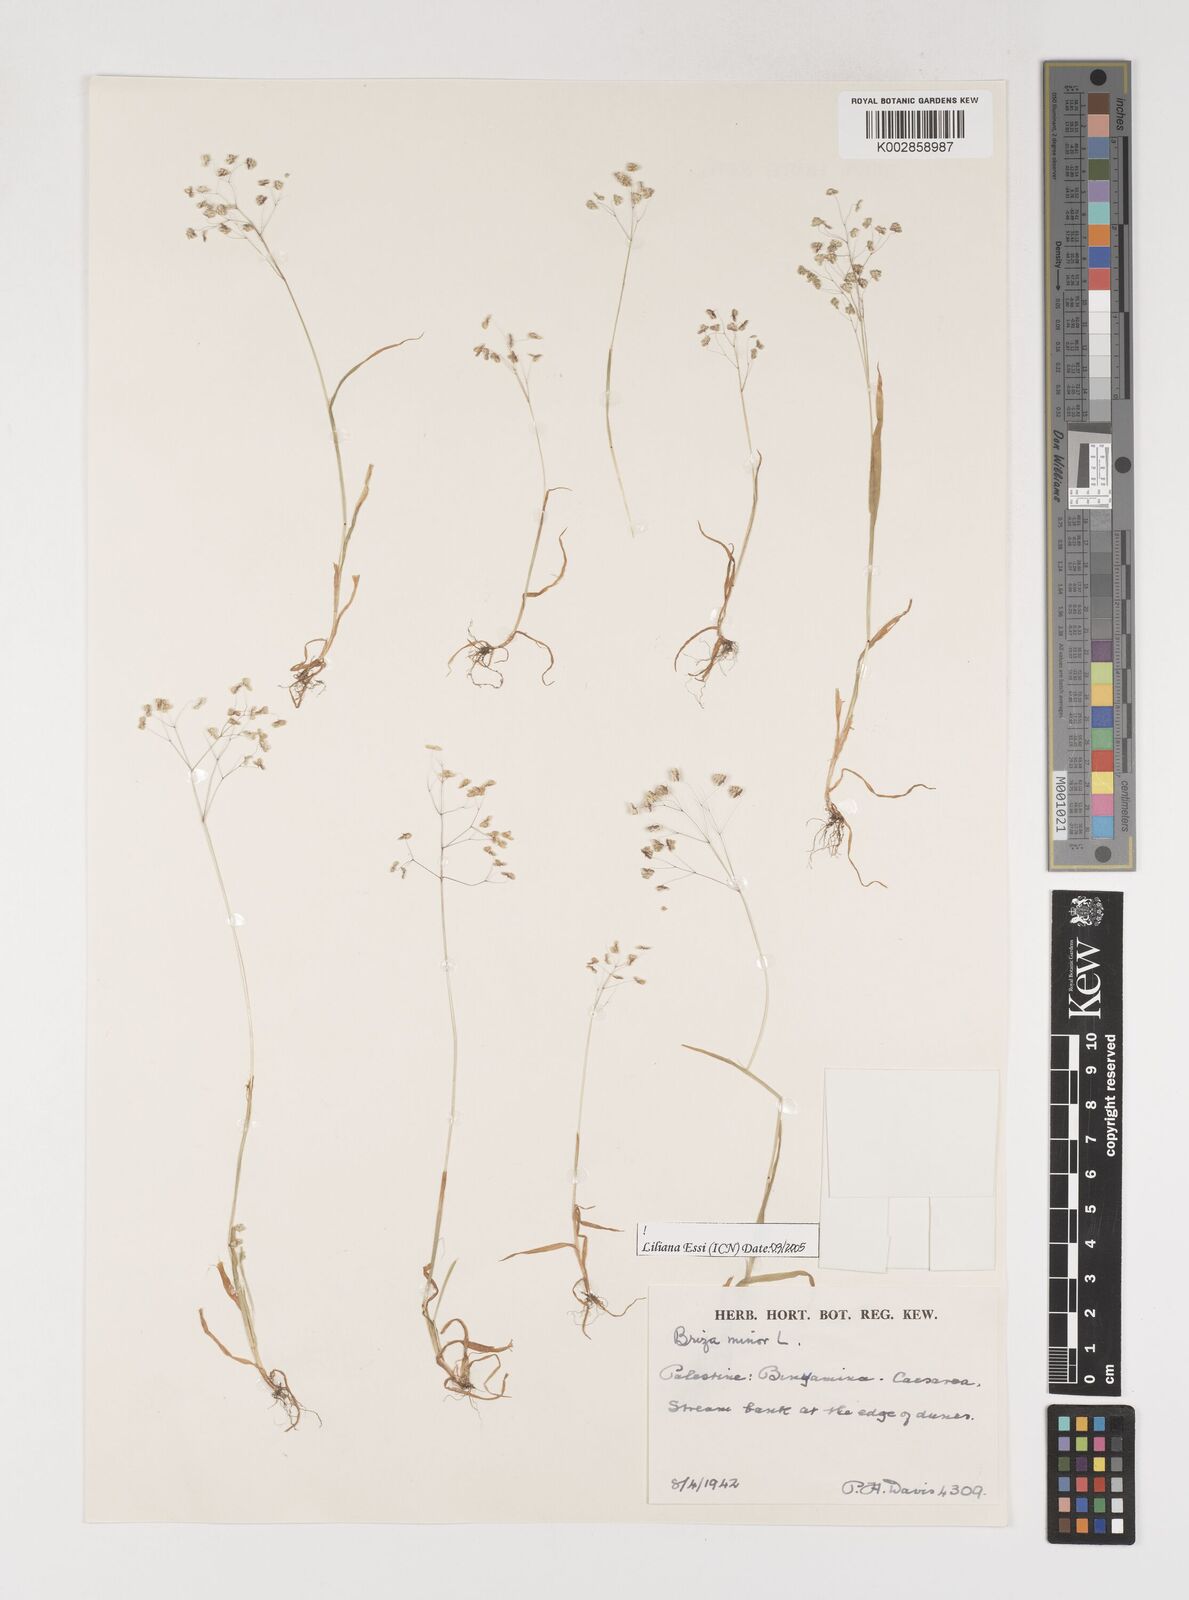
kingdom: Plantae
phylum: Tracheophyta
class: Liliopsida
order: Poales
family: Poaceae
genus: Briza
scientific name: Briza minor
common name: Lesser quaking-grass
